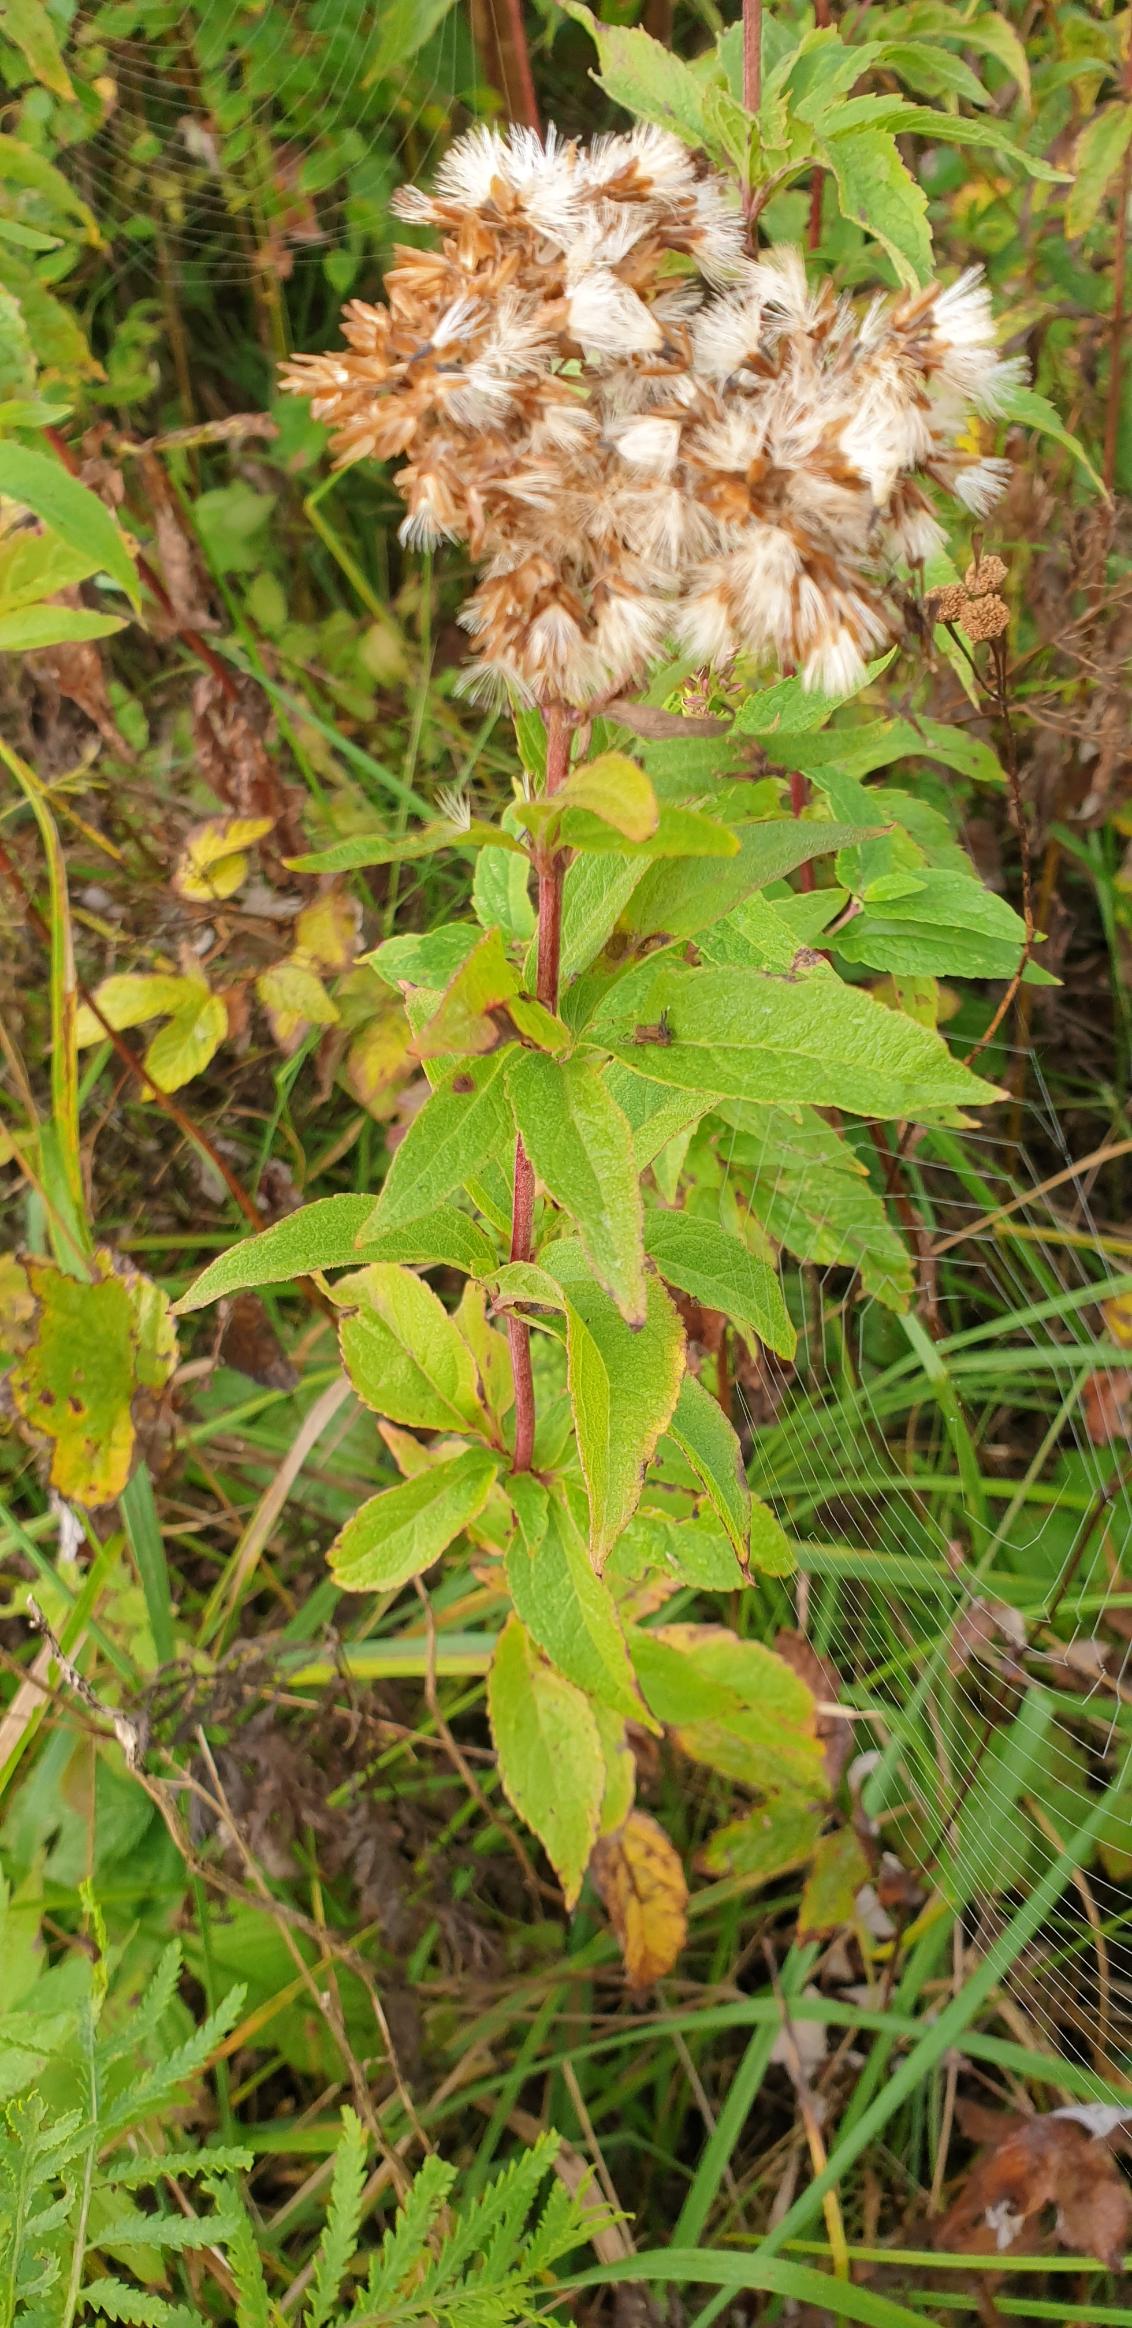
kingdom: Plantae
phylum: Tracheophyta
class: Magnoliopsida
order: Asterales
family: Asteraceae
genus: Eupatorium
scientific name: Eupatorium cannabinum
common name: Hjortetrøst
